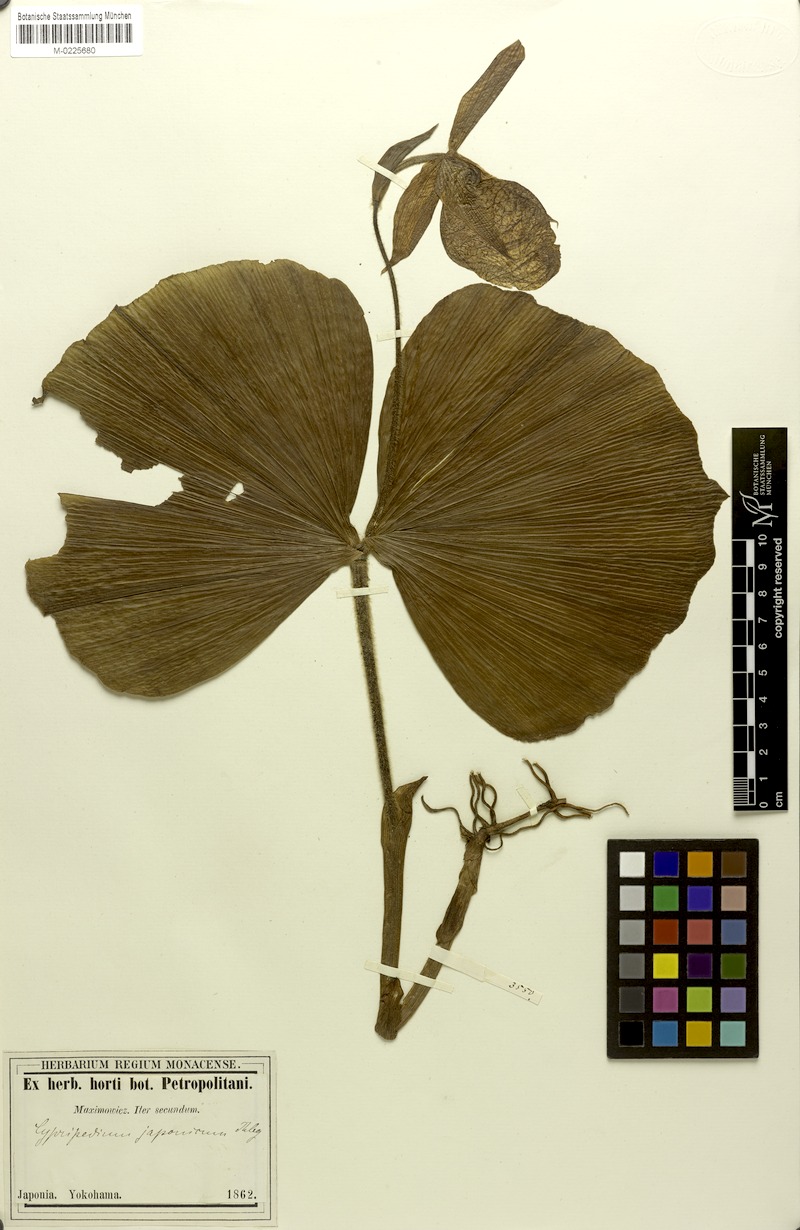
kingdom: Plantae
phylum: Tracheophyta
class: Liliopsida
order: Asparagales
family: Orchidaceae
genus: Cypripedium
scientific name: Cypripedium japonicum
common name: Japanese ladyslipper
